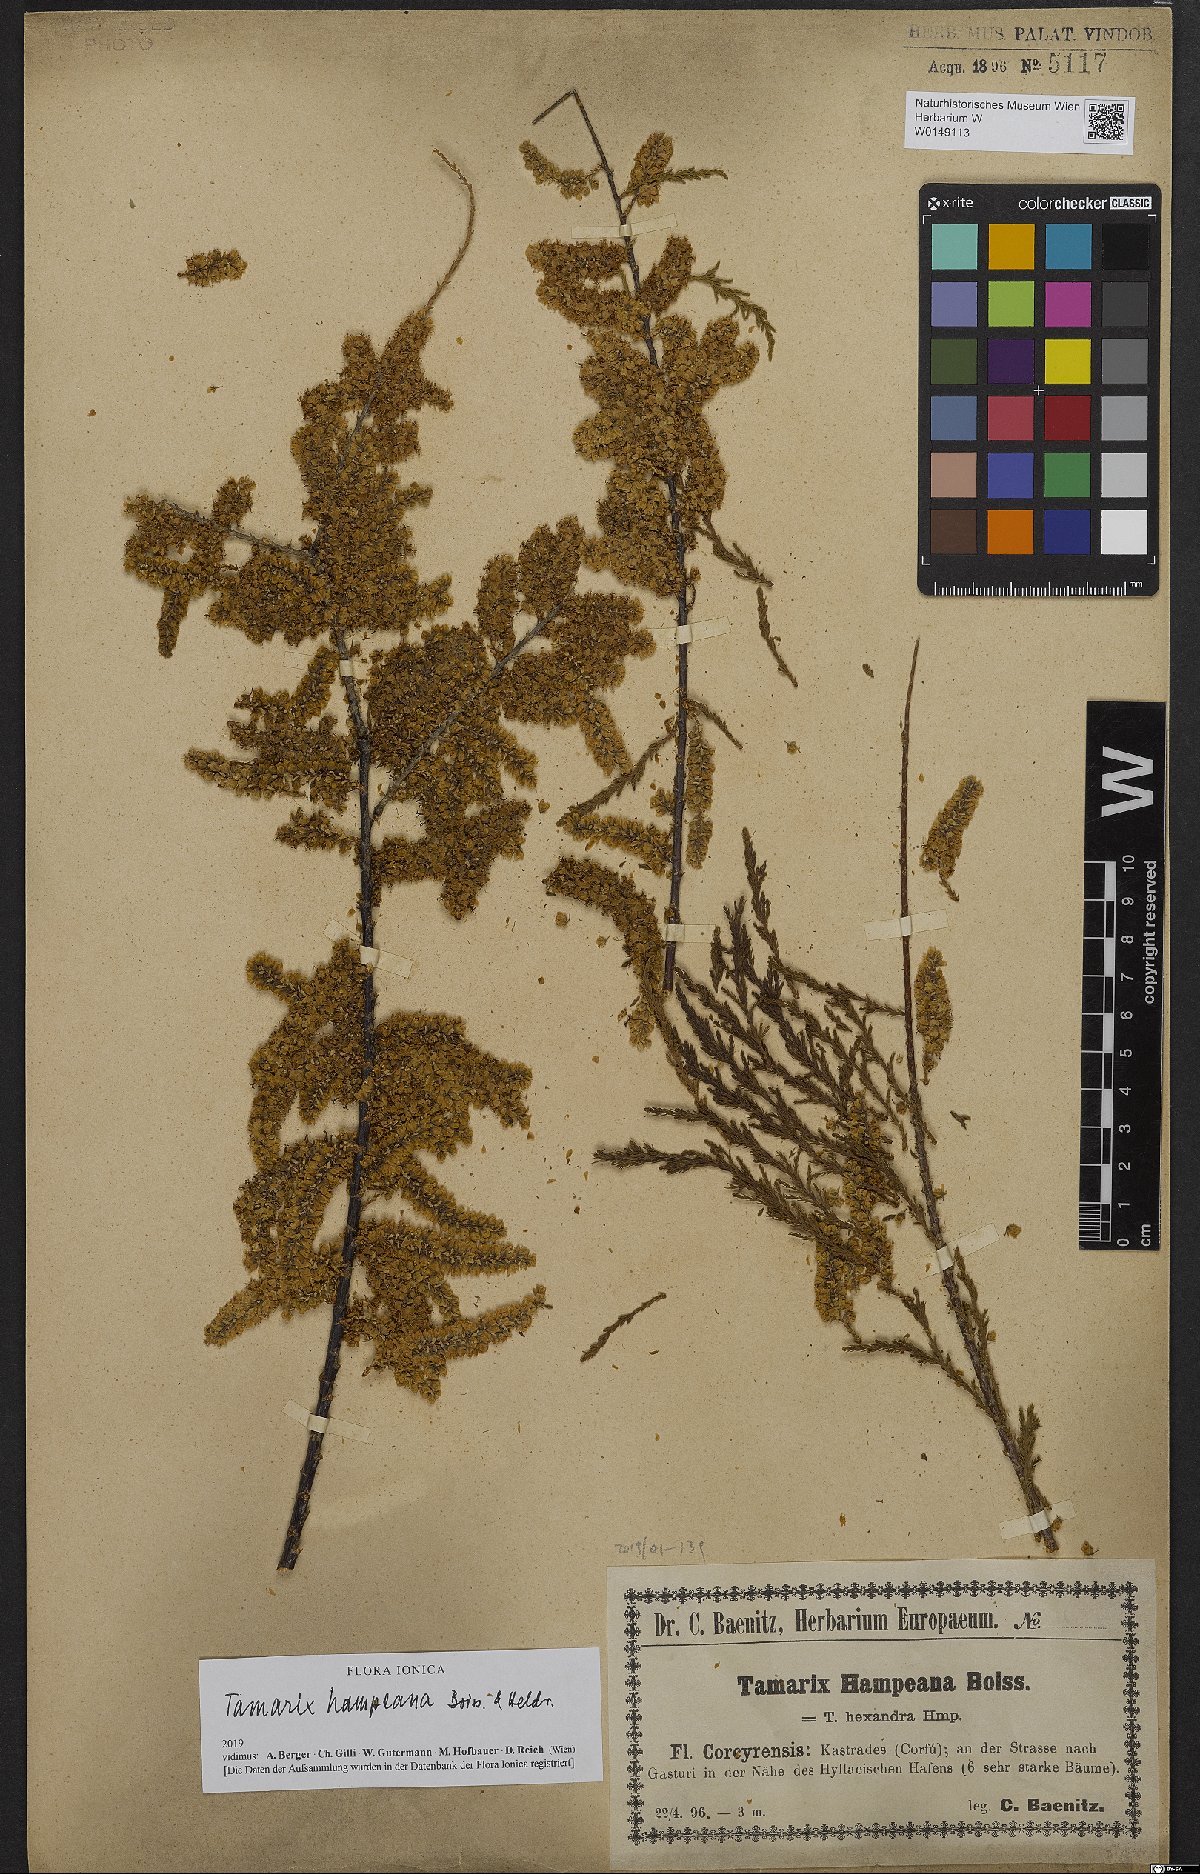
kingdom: Plantae
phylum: Tracheophyta
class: Magnoliopsida
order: Caryophyllales
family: Tamaricaceae
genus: Tamarix
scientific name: Tamarix hampeana
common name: Hampe’s tamarisk
